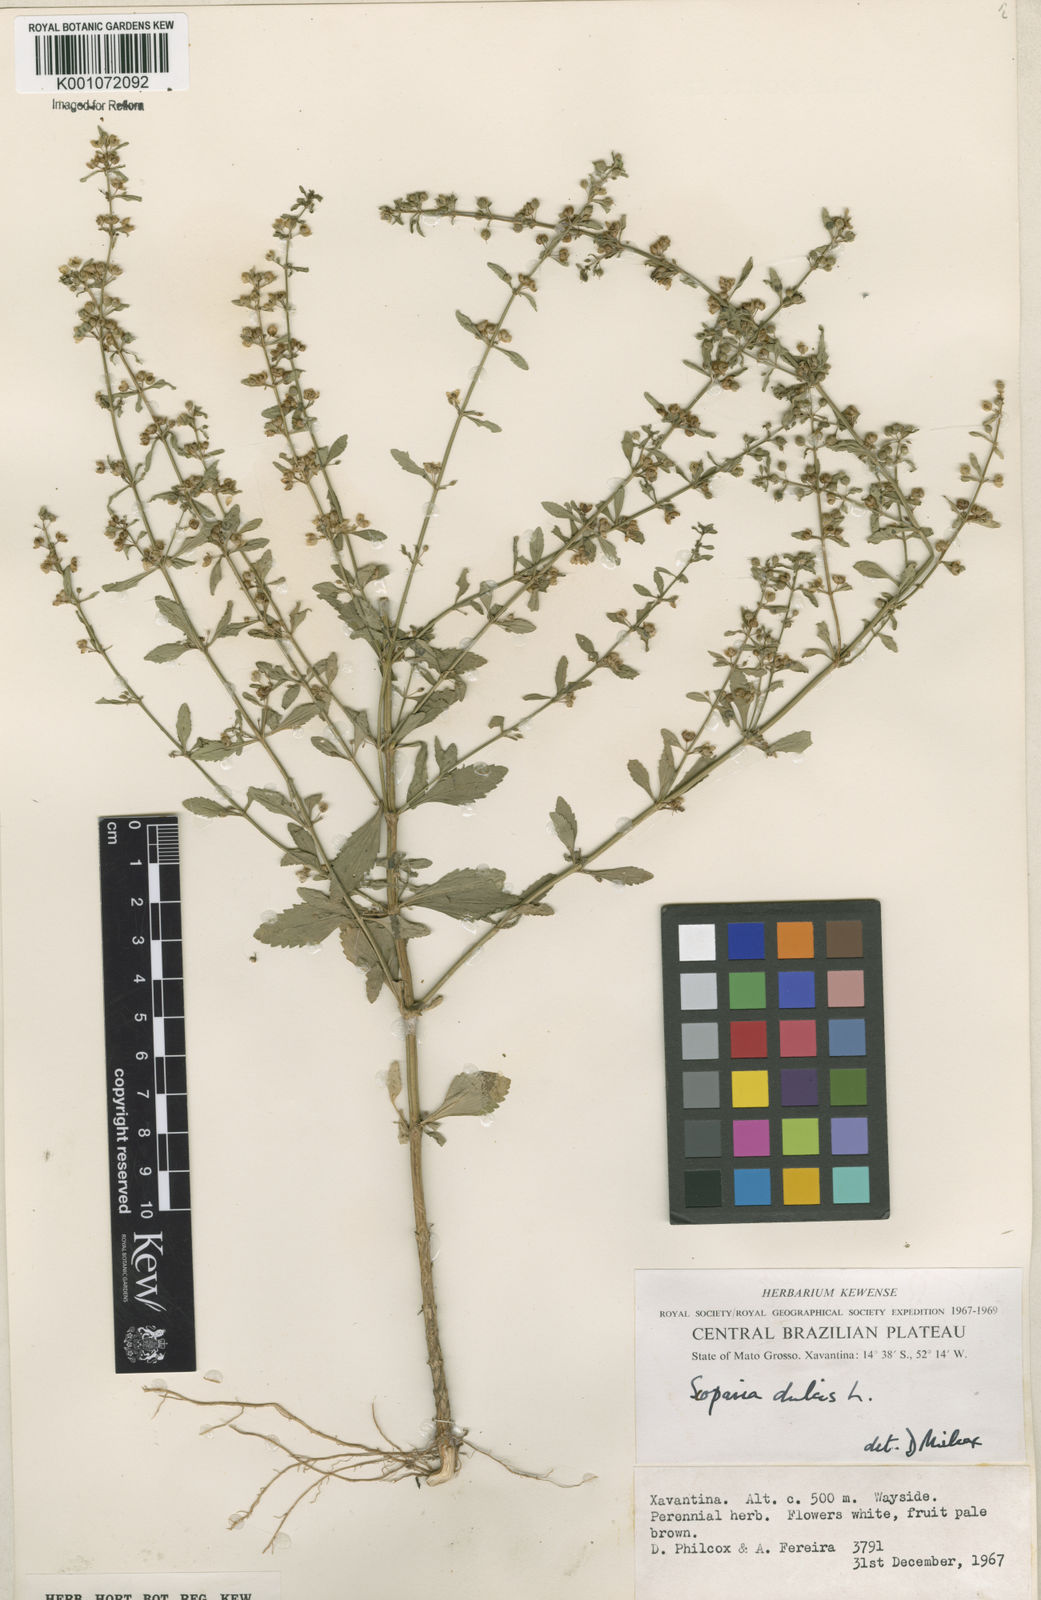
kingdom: Plantae
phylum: Tracheophyta
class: Magnoliopsida
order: Lamiales
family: Plantaginaceae
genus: Scoparia
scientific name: Scoparia dulcis
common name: Scoparia-weed
